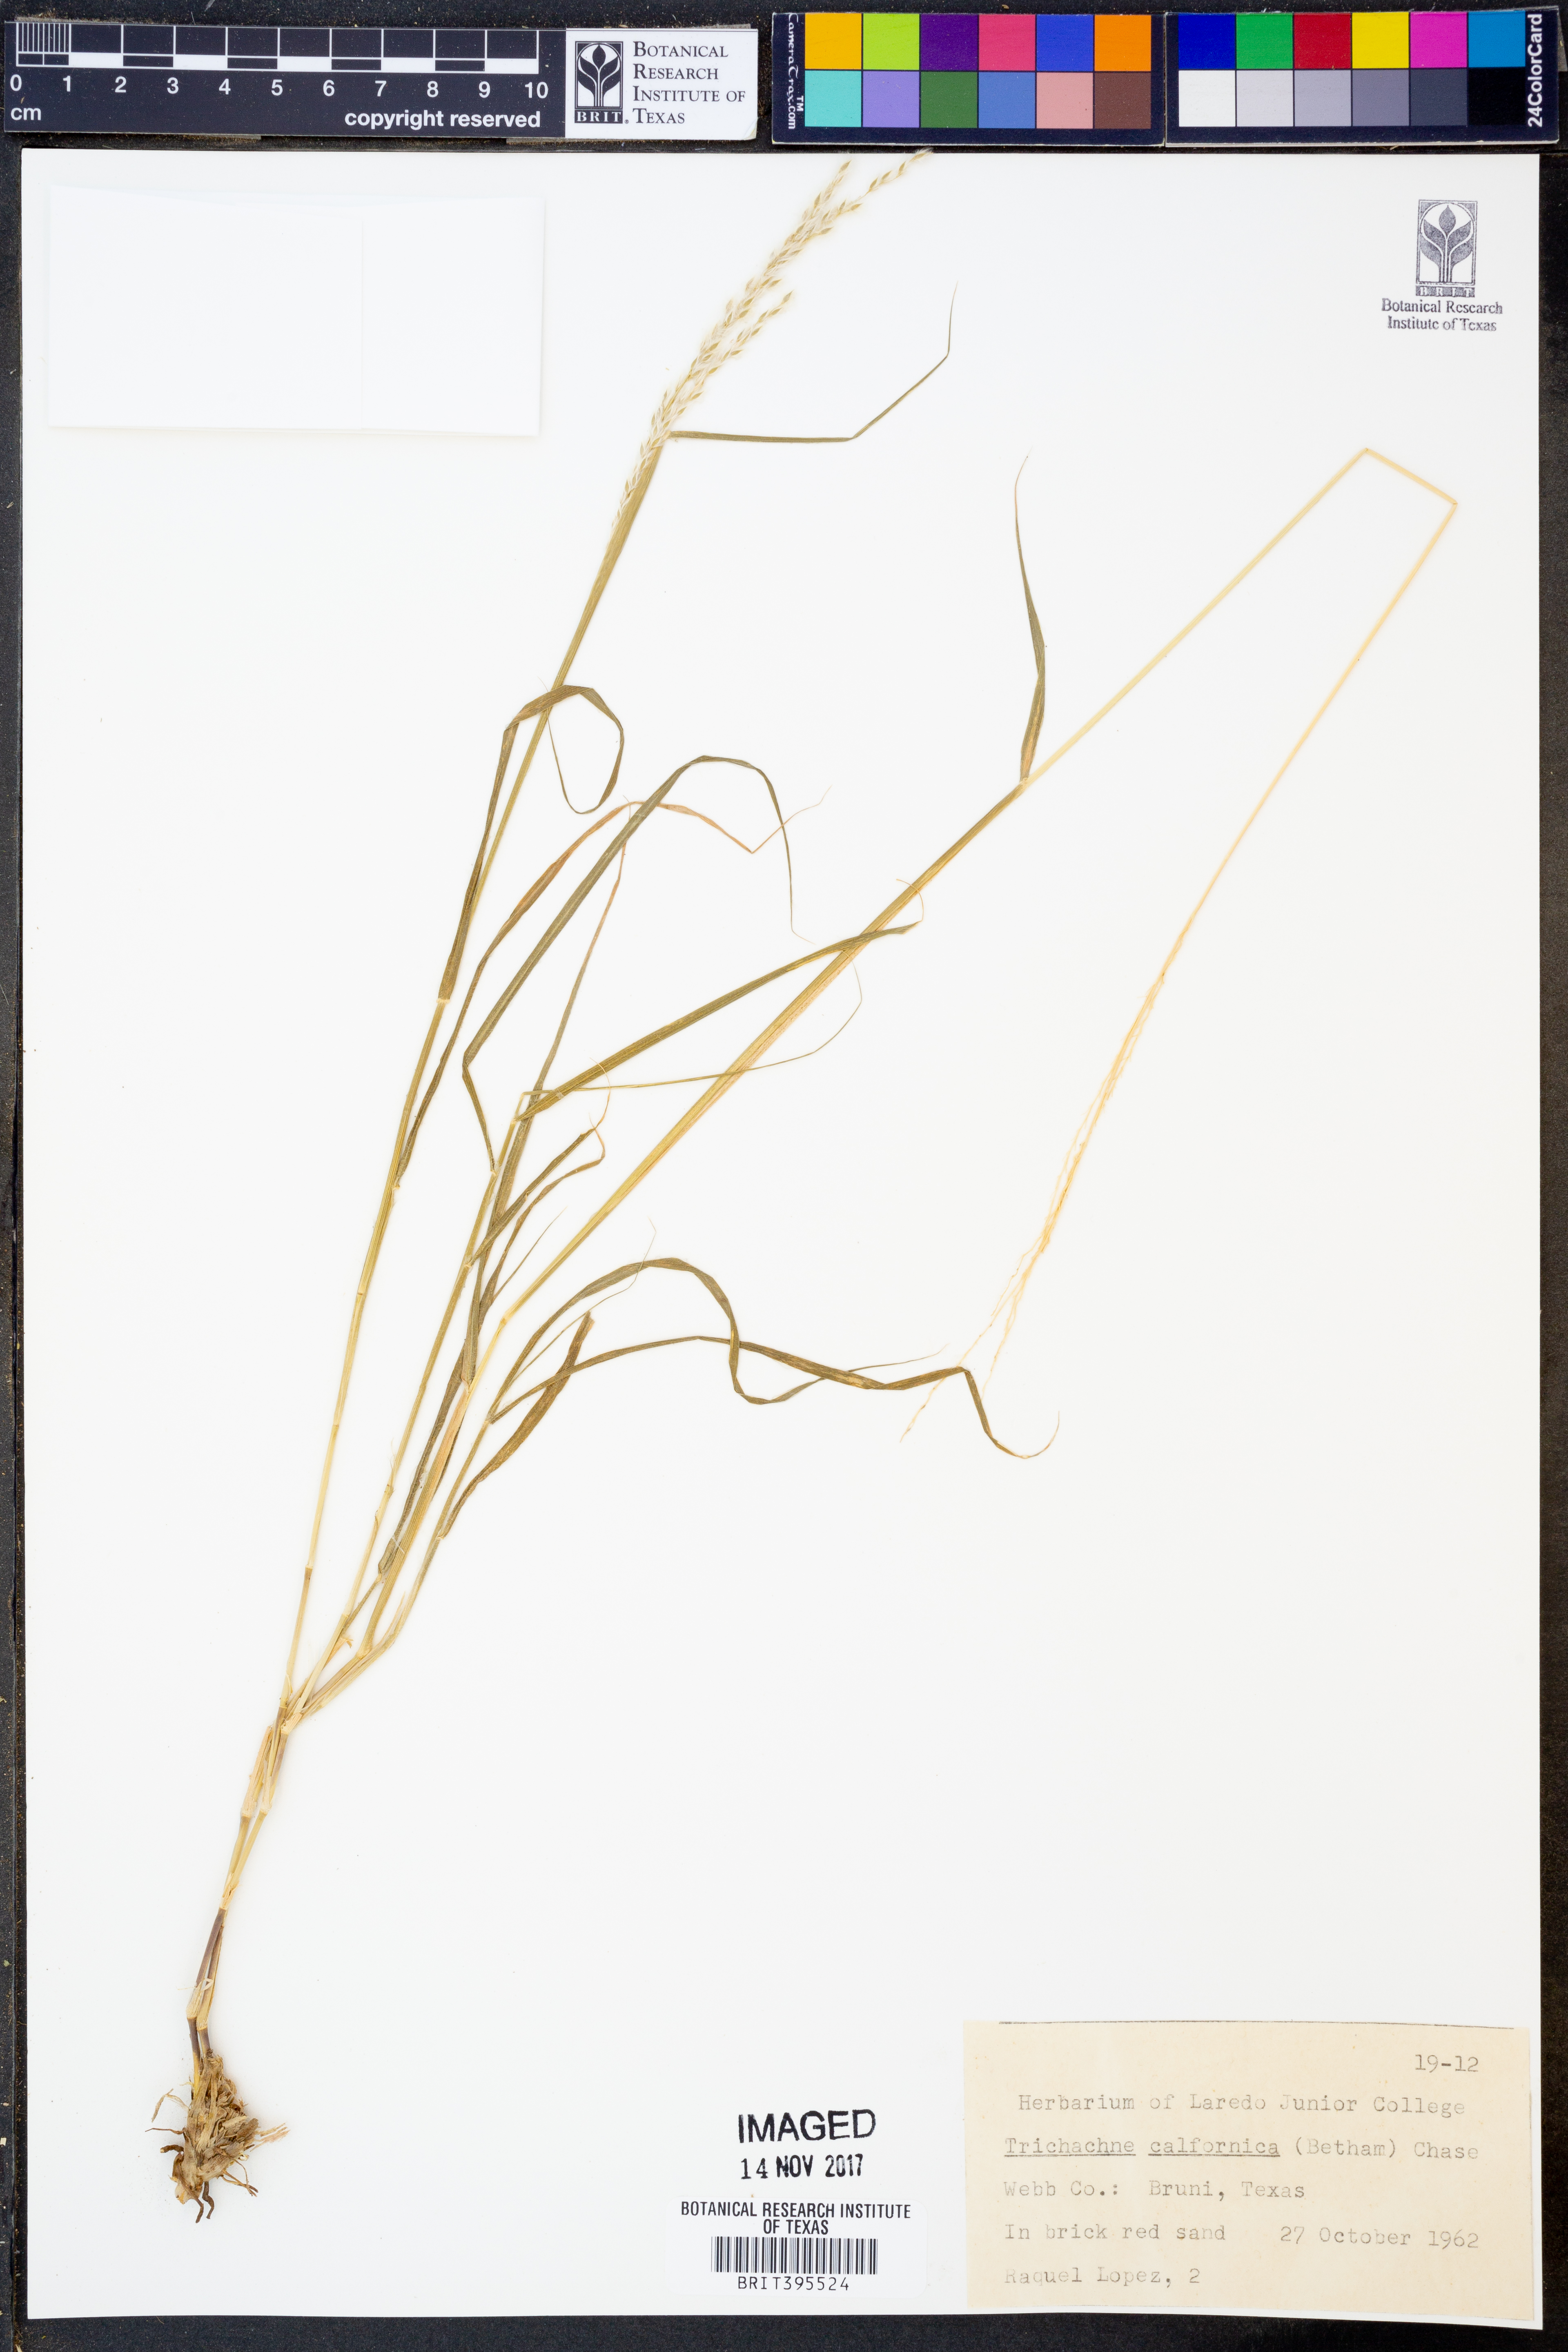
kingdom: Plantae
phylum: Tracheophyta
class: Liliopsida
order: Poales
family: Poaceae
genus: Digitaria
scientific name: Digitaria californica
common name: Arizona cottontop
